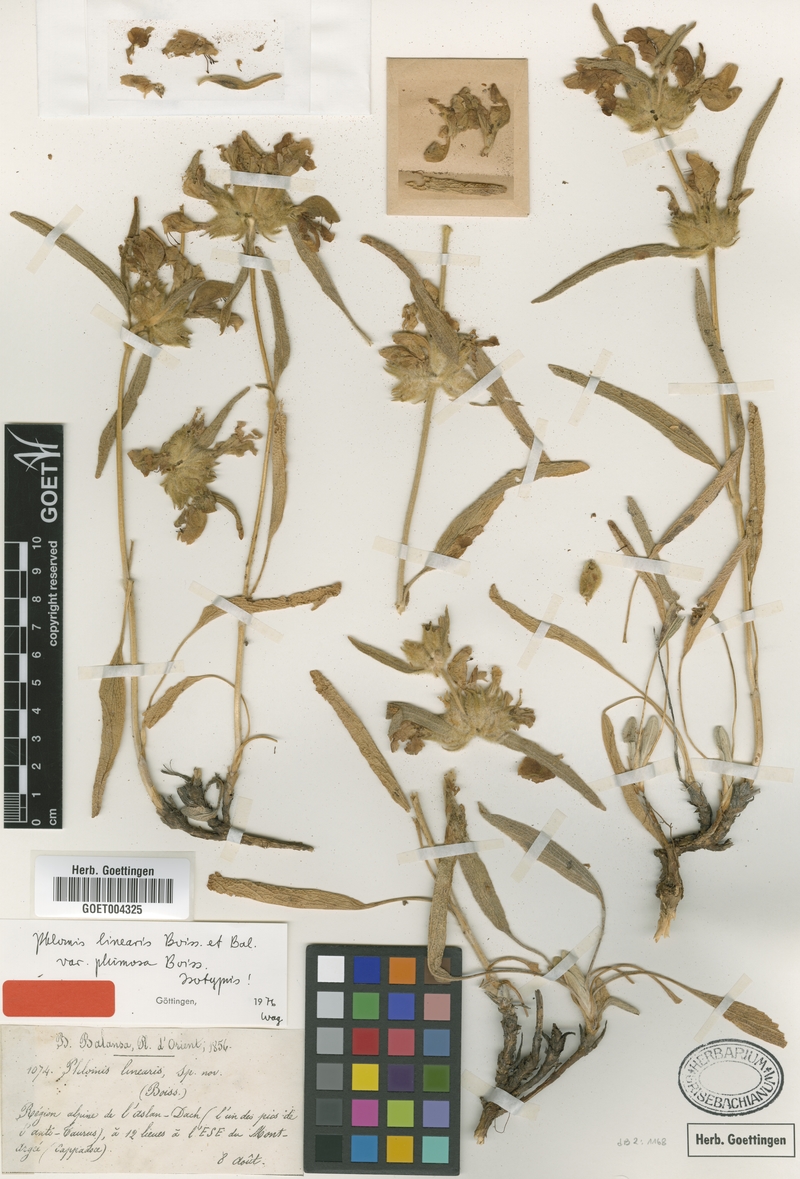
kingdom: Plantae
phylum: Tracheophyta
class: Magnoliopsida
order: Lamiales
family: Lamiaceae
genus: Phlomis
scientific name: Phlomis linearis
